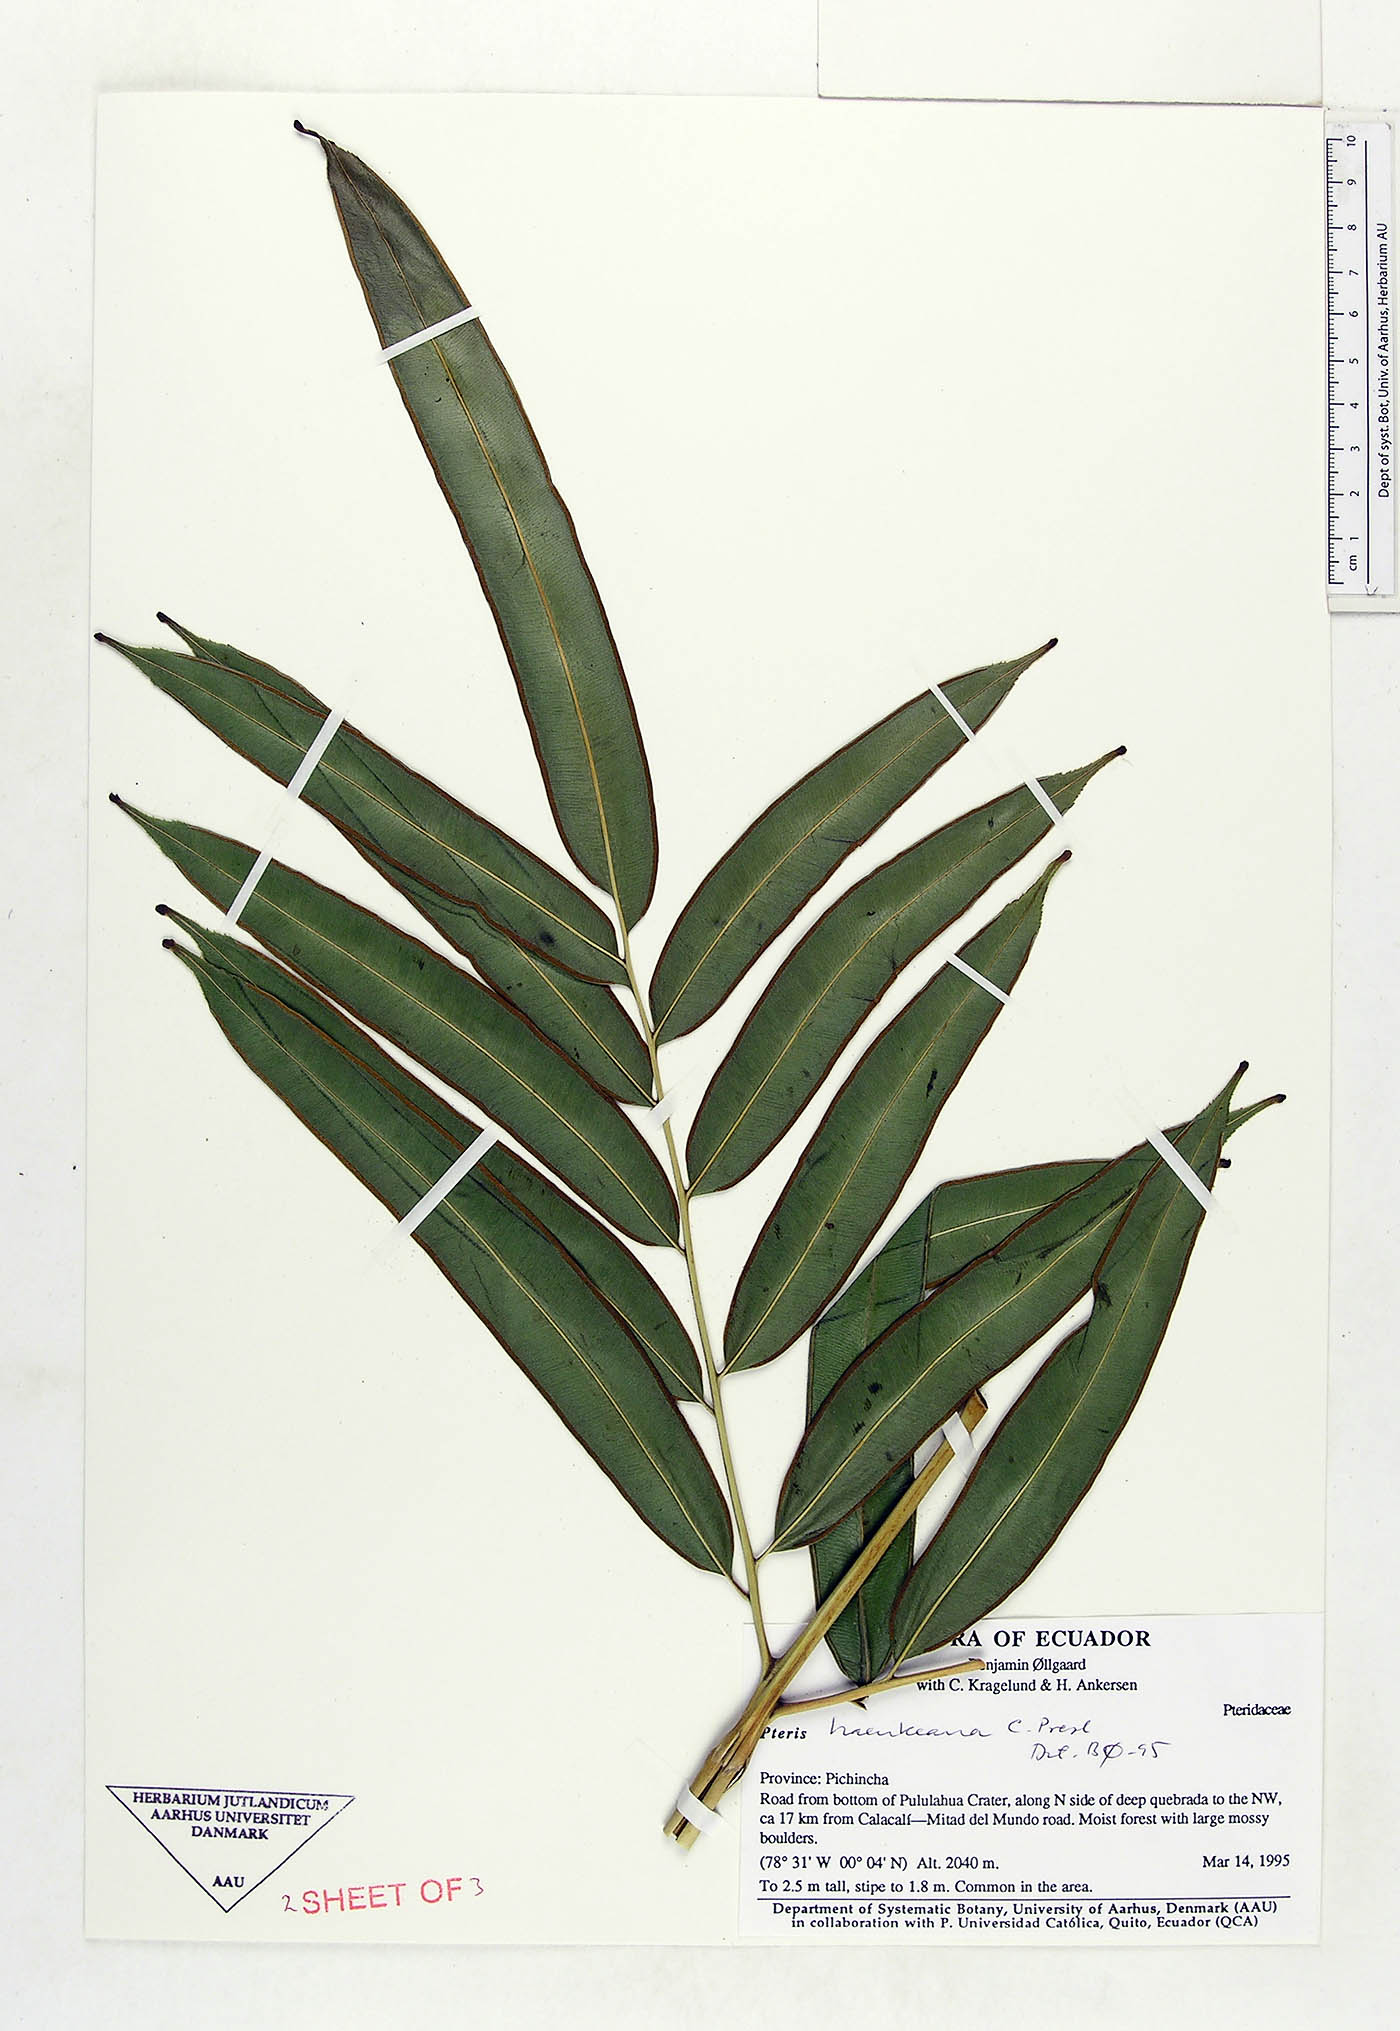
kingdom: Plantae
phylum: Tracheophyta
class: Polypodiopsida
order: Polypodiales
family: Pteridaceae
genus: Pteris
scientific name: Pteris haenkeana
